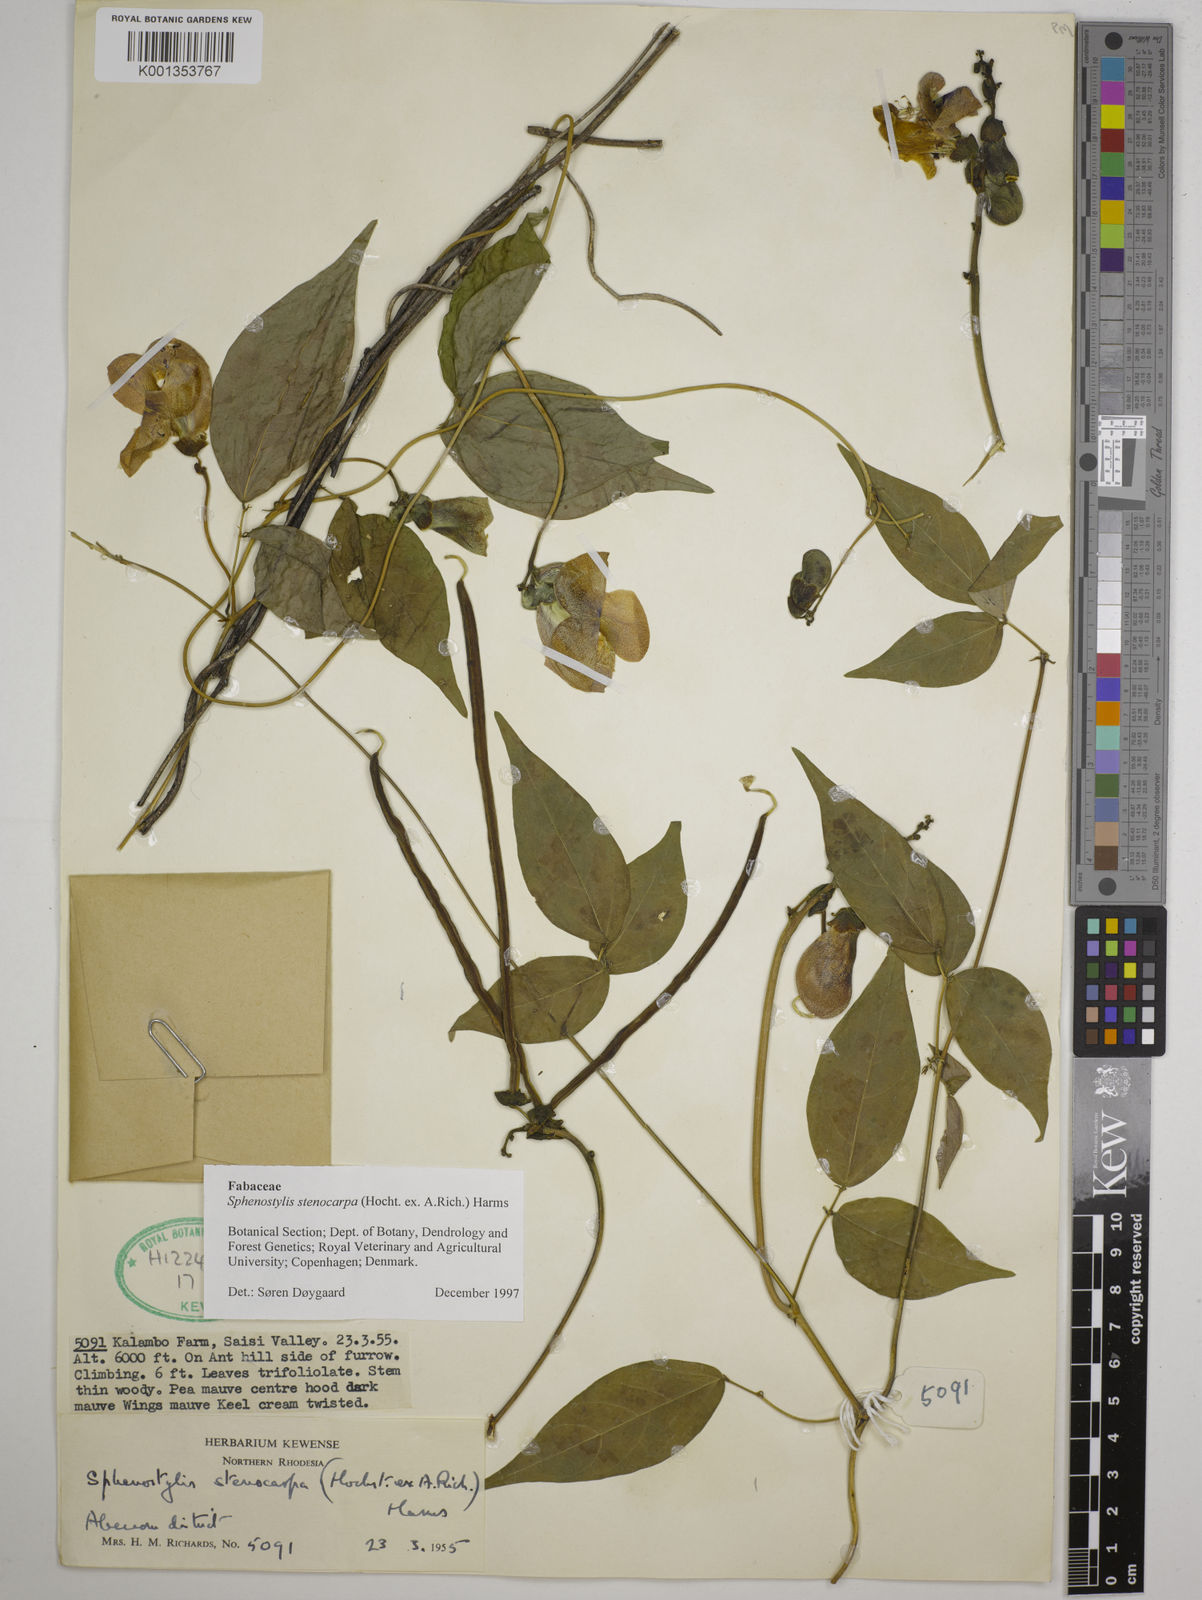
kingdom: Plantae
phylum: Tracheophyta
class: Magnoliopsida
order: Fabales
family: Fabaceae
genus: Sphenostylis
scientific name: Sphenostylis stenocarpa
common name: Yam-pea
